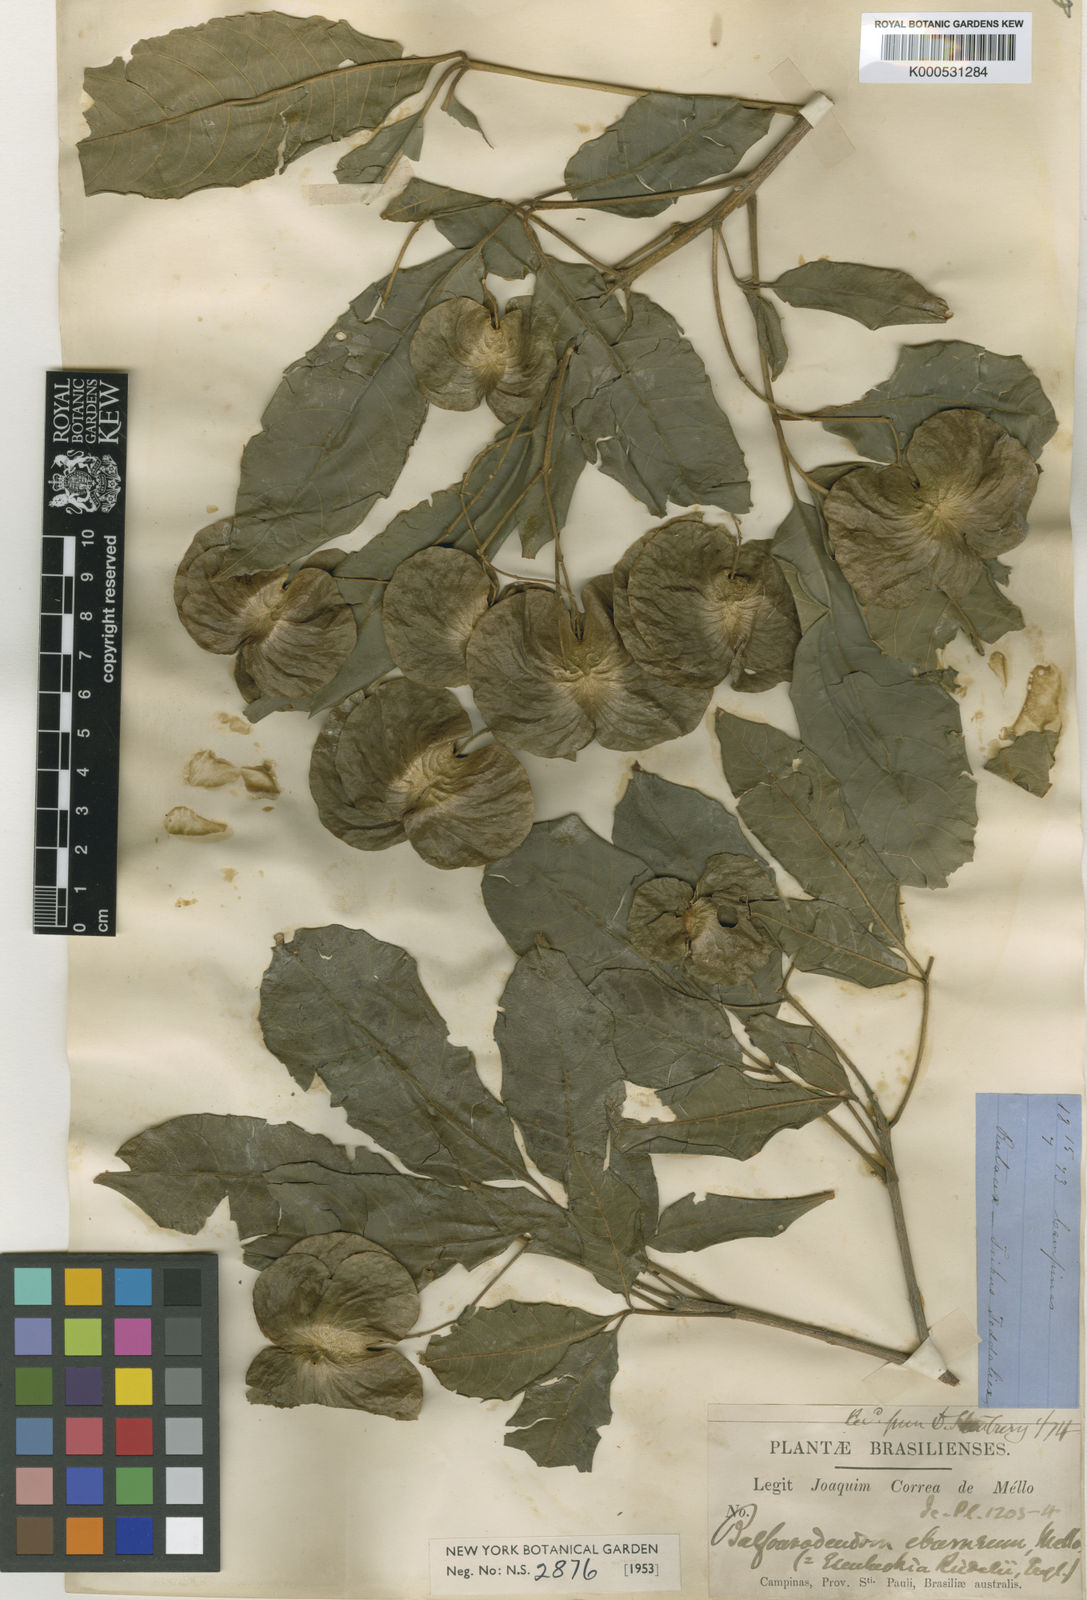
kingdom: Plantae
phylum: Tracheophyta
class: Magnoliopsida
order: Sapindales
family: Rutaceae
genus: Balfourodendron
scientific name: Balfourodendron riedelianum
